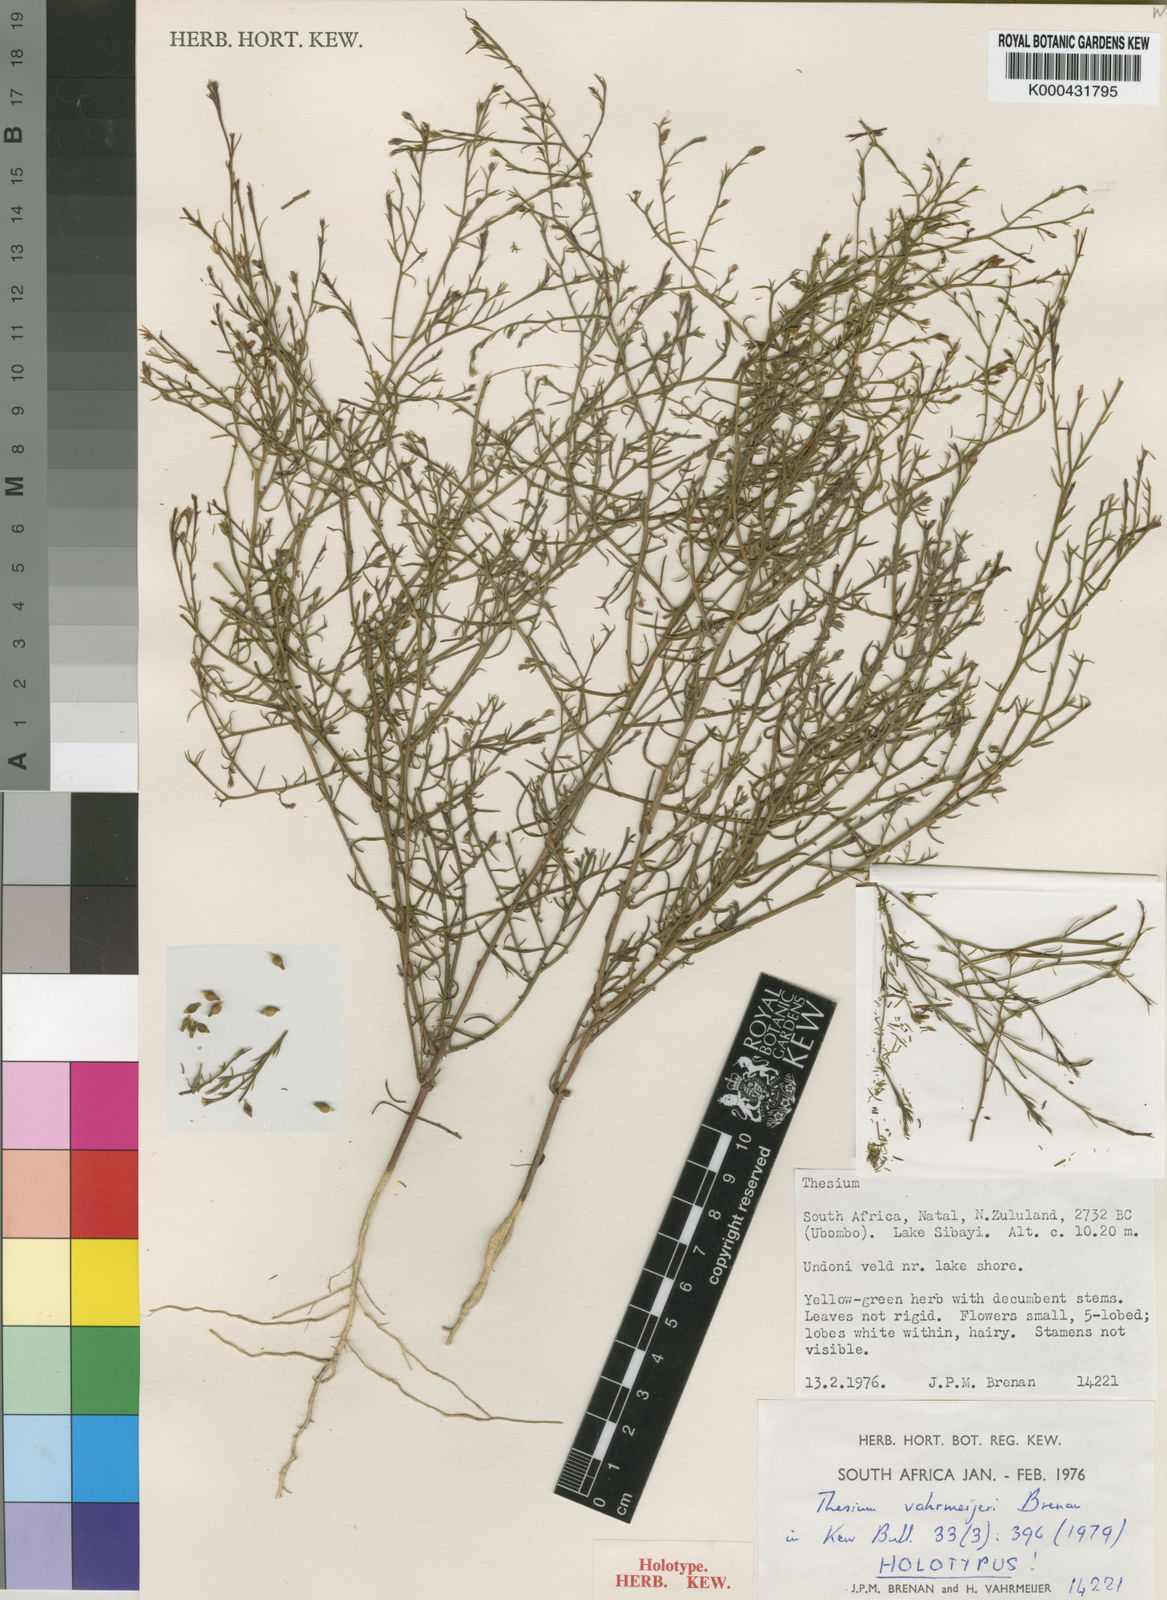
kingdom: Plantae
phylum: Tracheophyta
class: Magnoliopsida
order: Santalales
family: Thesiaceae
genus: Thesium
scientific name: Thesium vahrmeijeri
